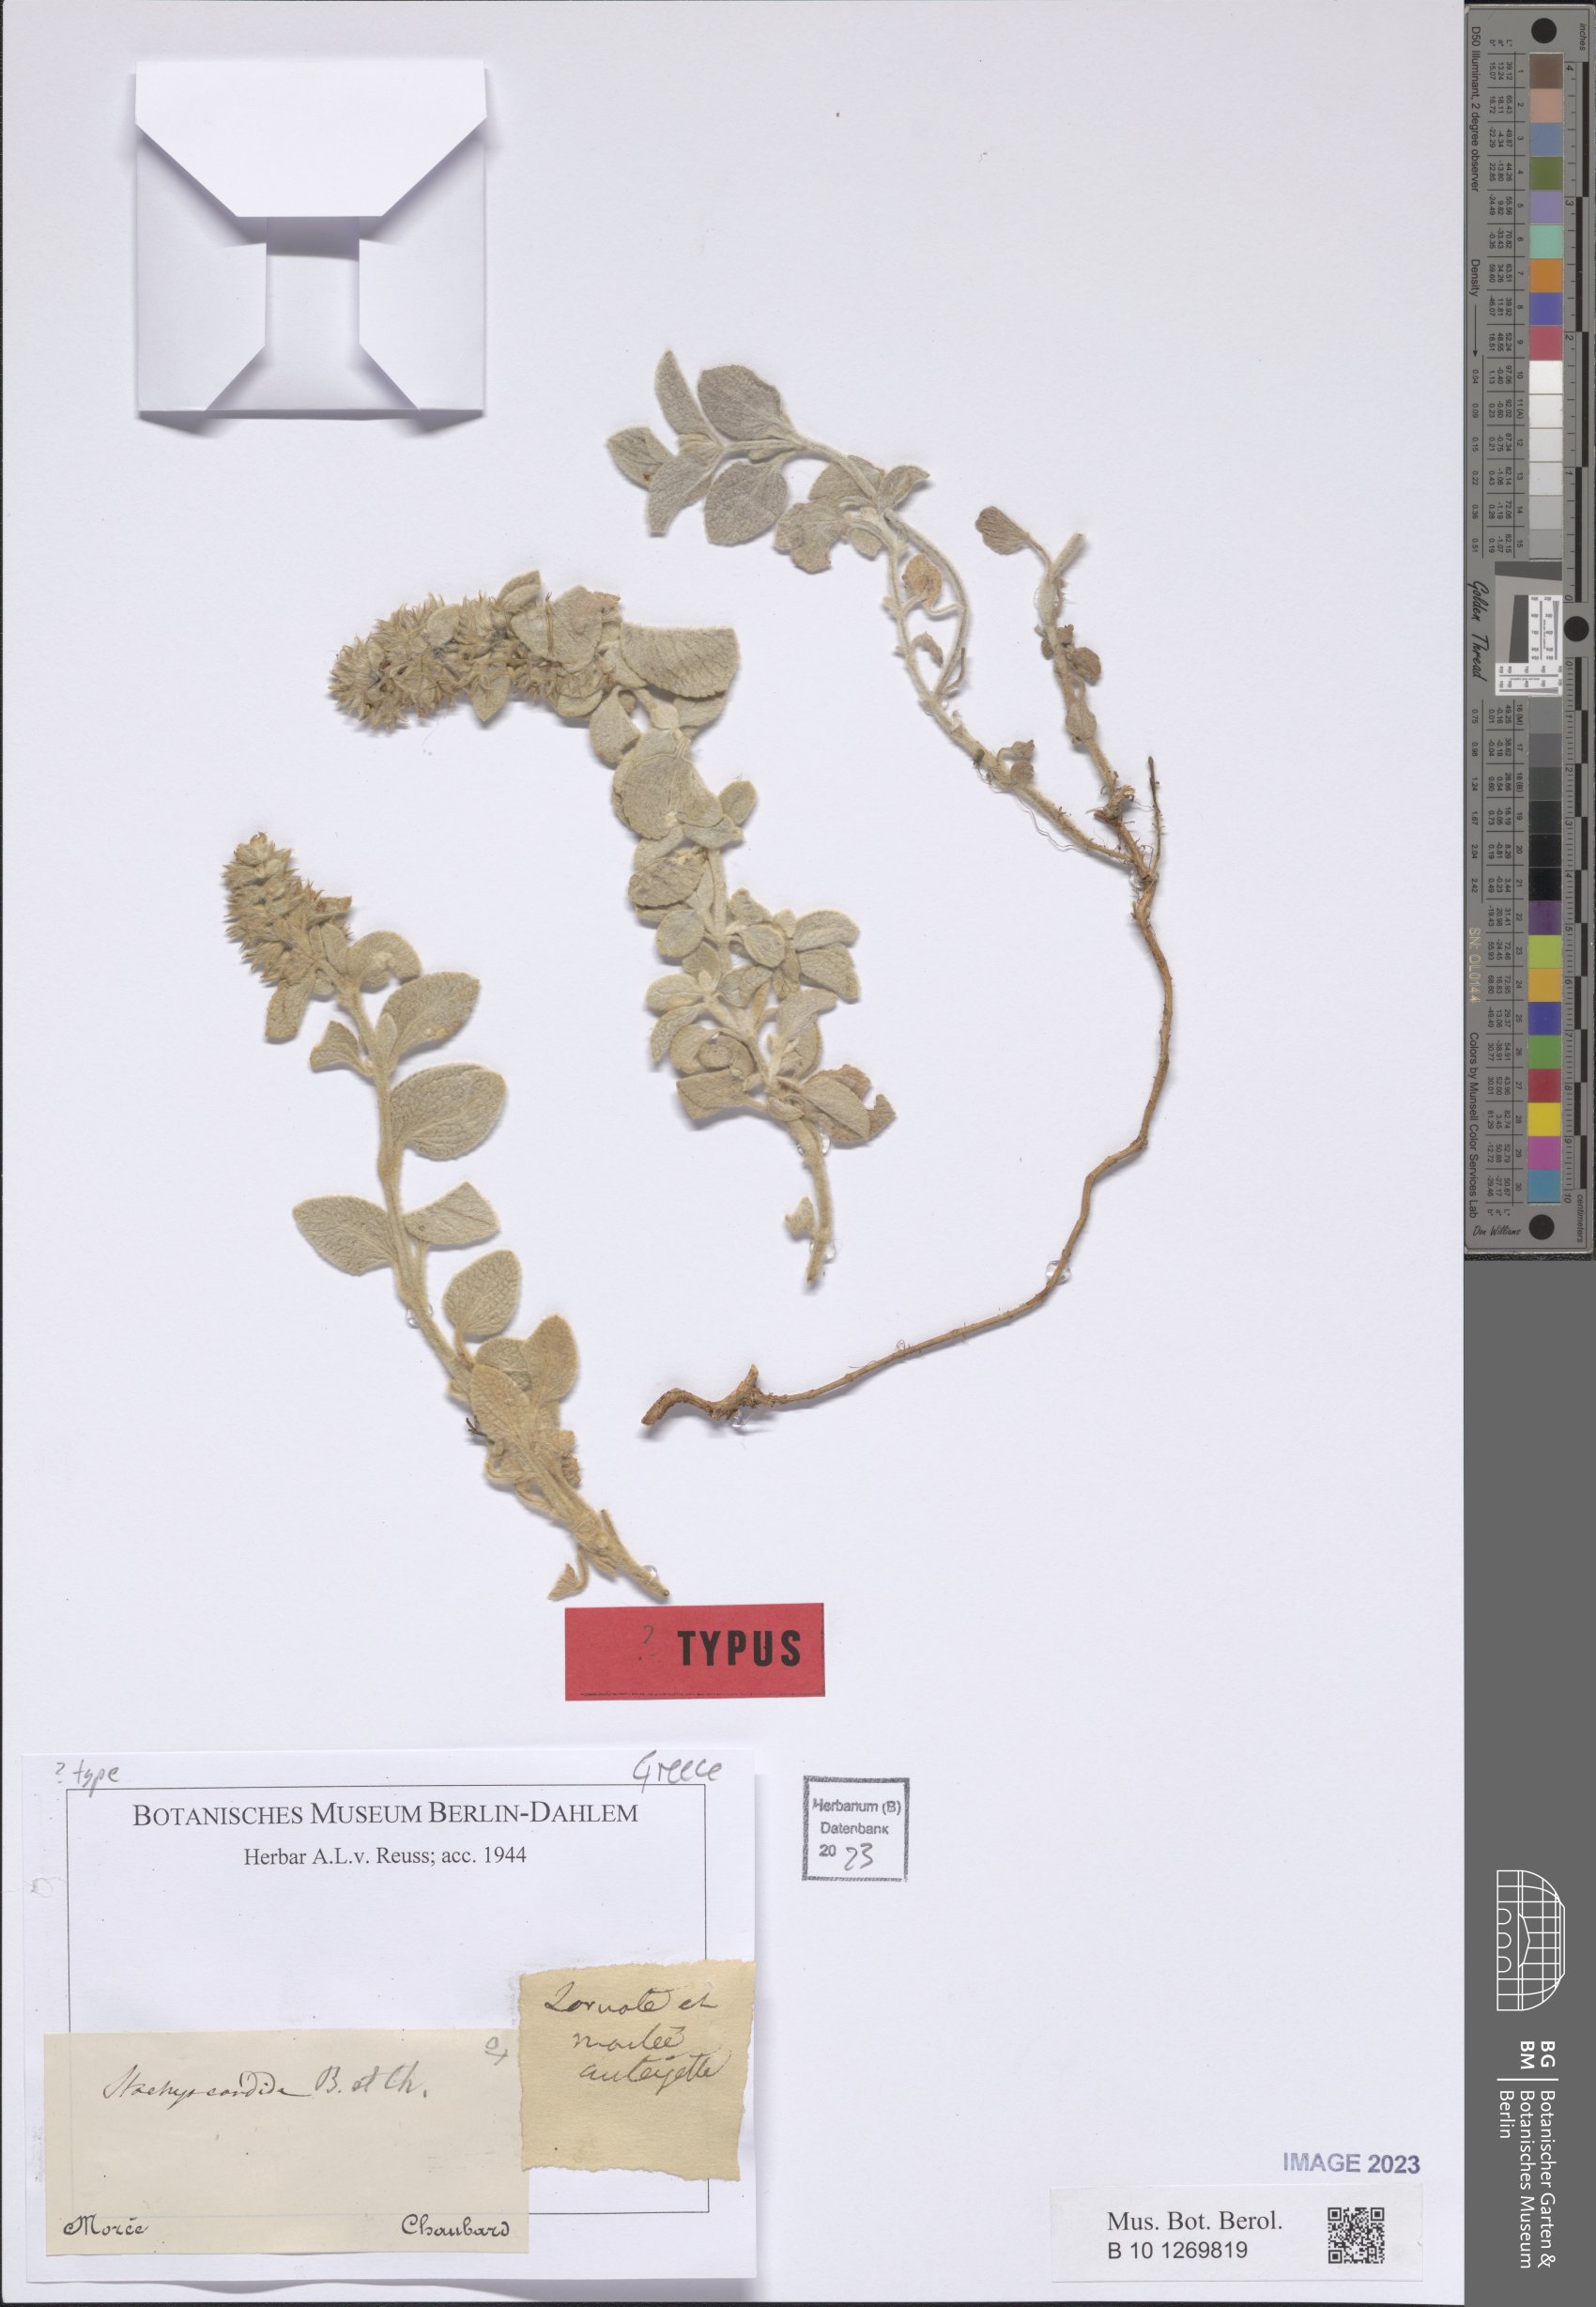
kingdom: Plantae
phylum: Tracheophyta
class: Magnoliopsida
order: Lamiales
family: Lamiaceae
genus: Stachys
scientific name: Stachys candida
